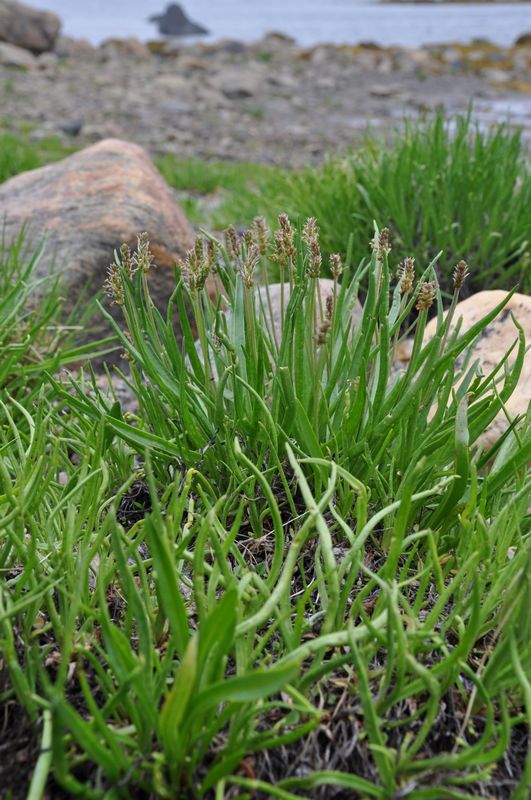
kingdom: Plantae
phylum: Tracheophyta
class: Magnoliopsida
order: Lamiales
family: Plantaginaceae
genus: Plantago
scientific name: Plantago maritima
